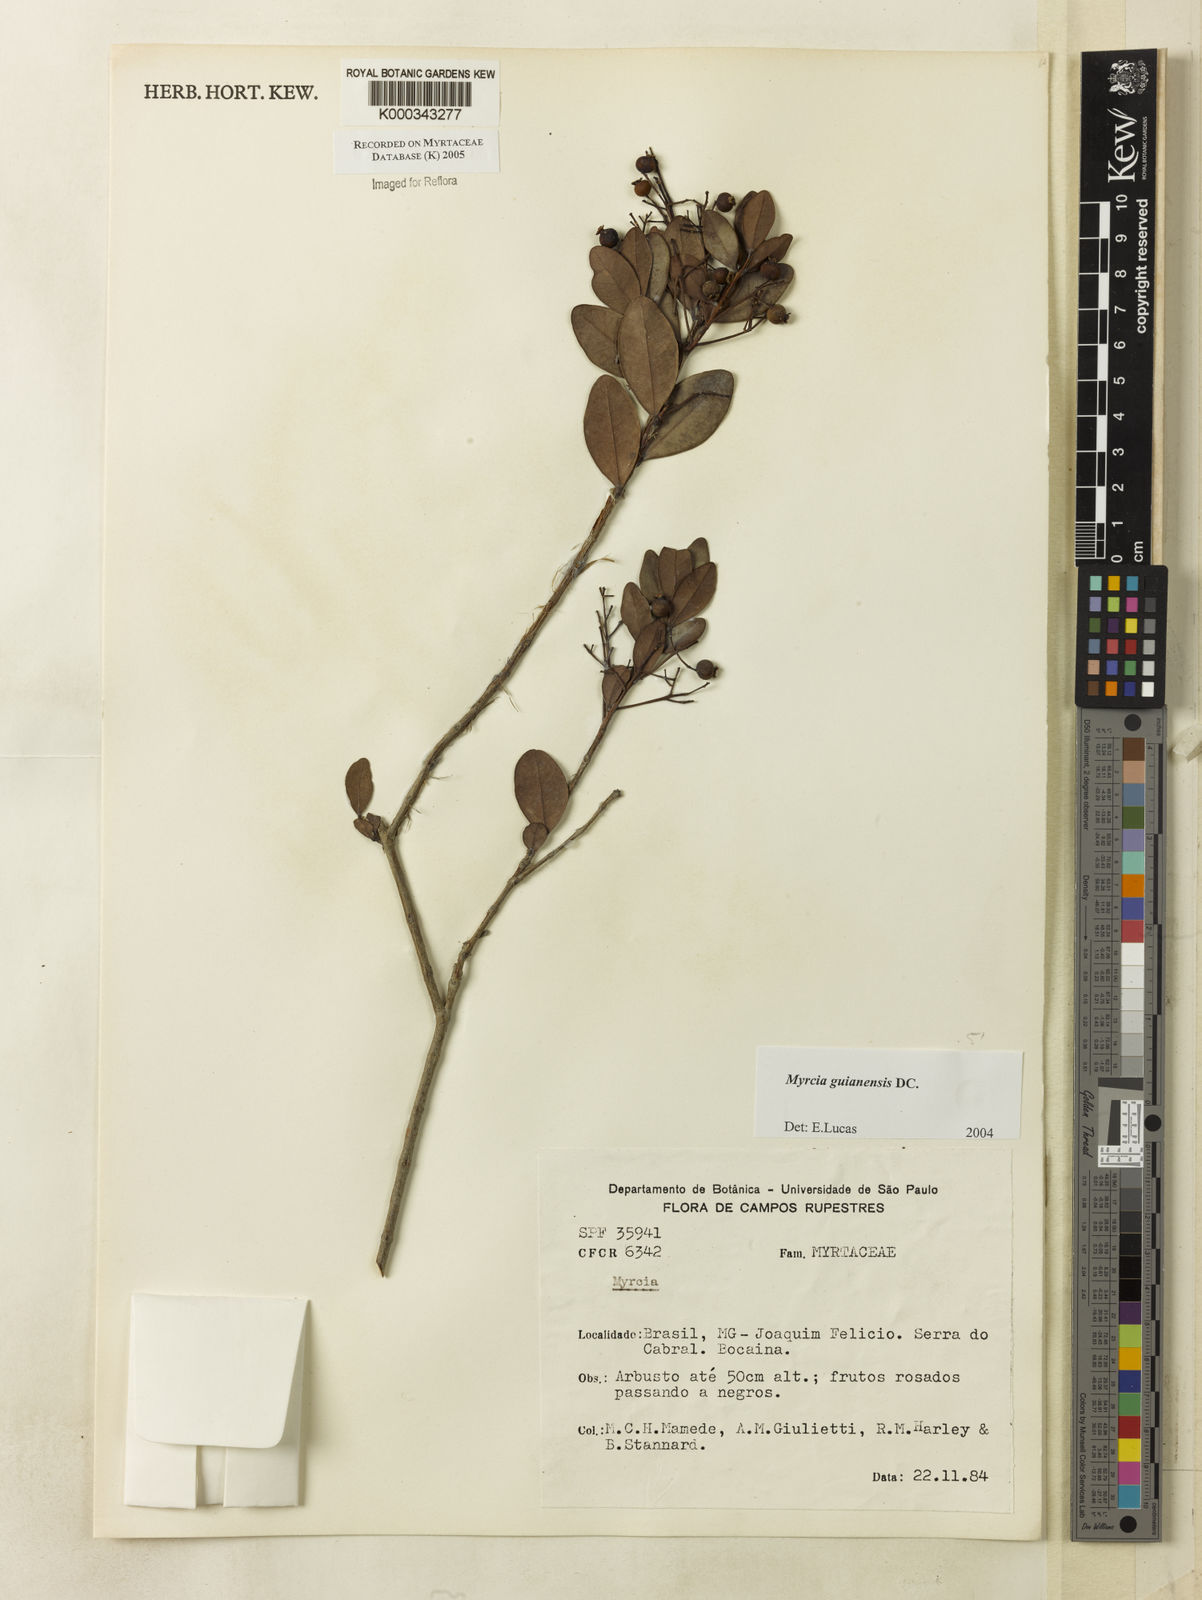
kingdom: Plantae
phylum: Tracheophyta
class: Magnoliopsida
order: Myrtales
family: Myrtaceae
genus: Myrcia
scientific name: Myrcia guianensis
